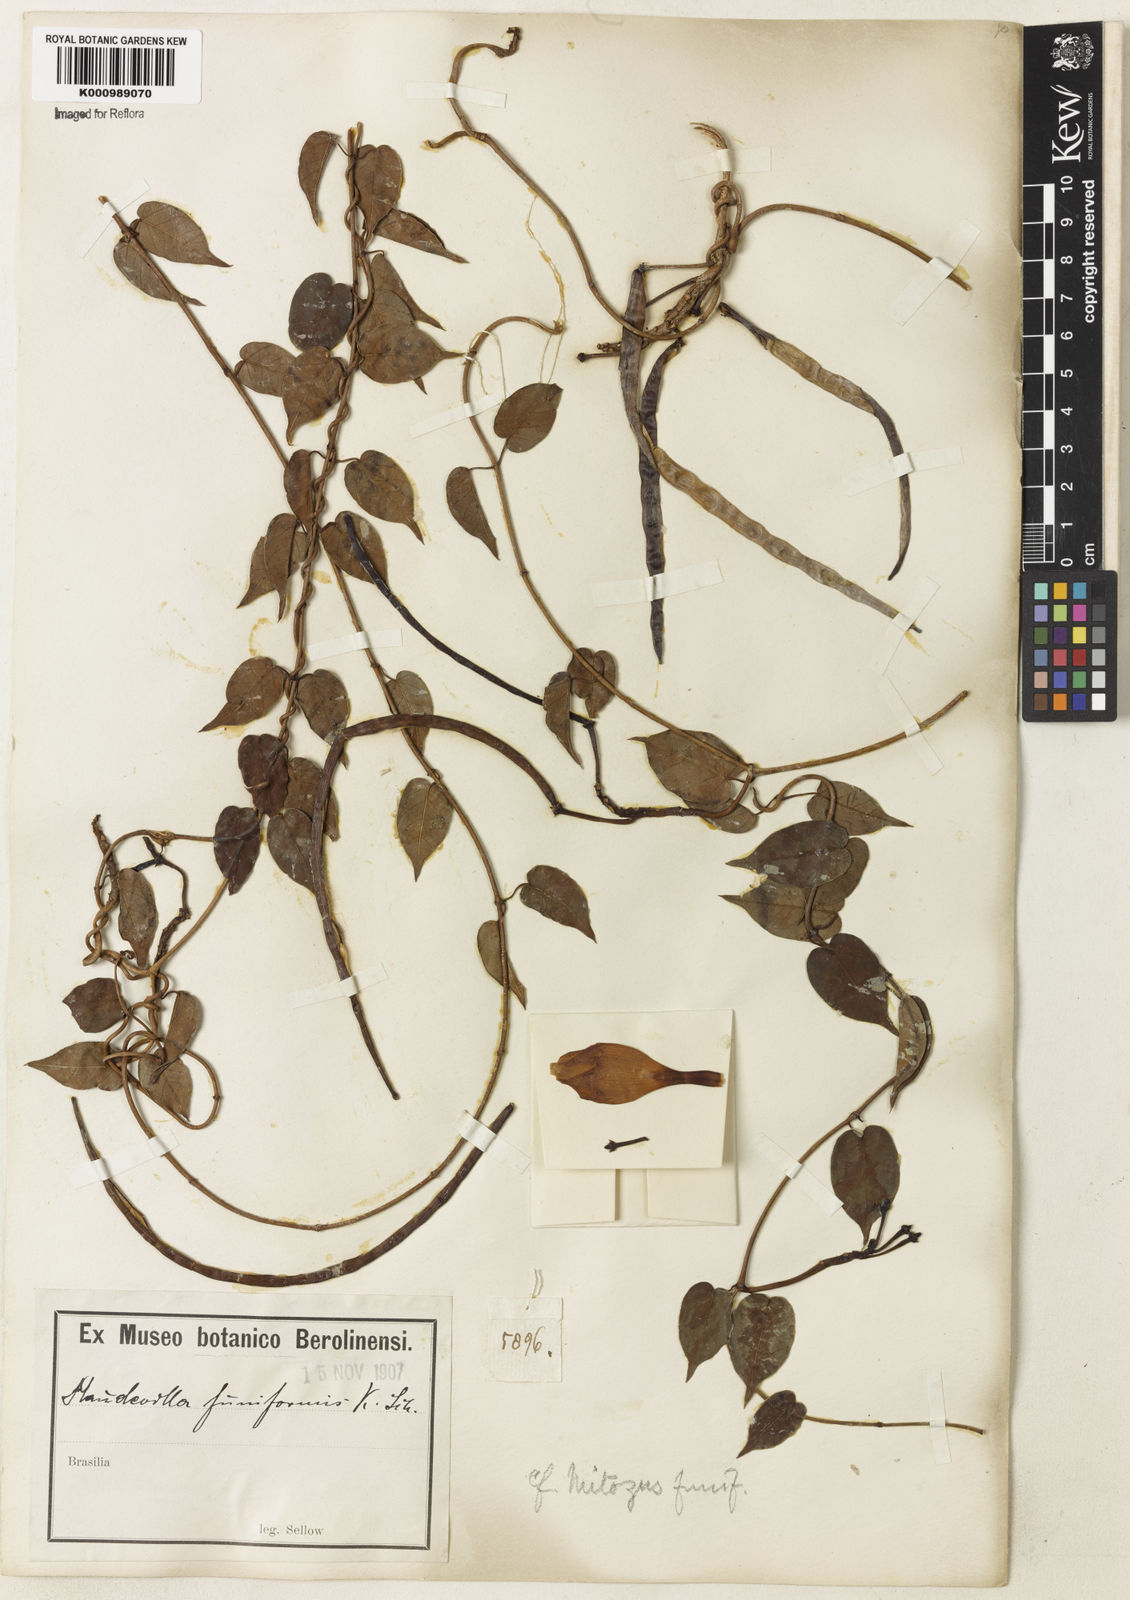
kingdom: Plantae
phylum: Tracheophyta
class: Magnoliopsida
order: Gentianales
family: Apocynaceae
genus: Mandevilla
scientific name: Mandevilla funiformis
